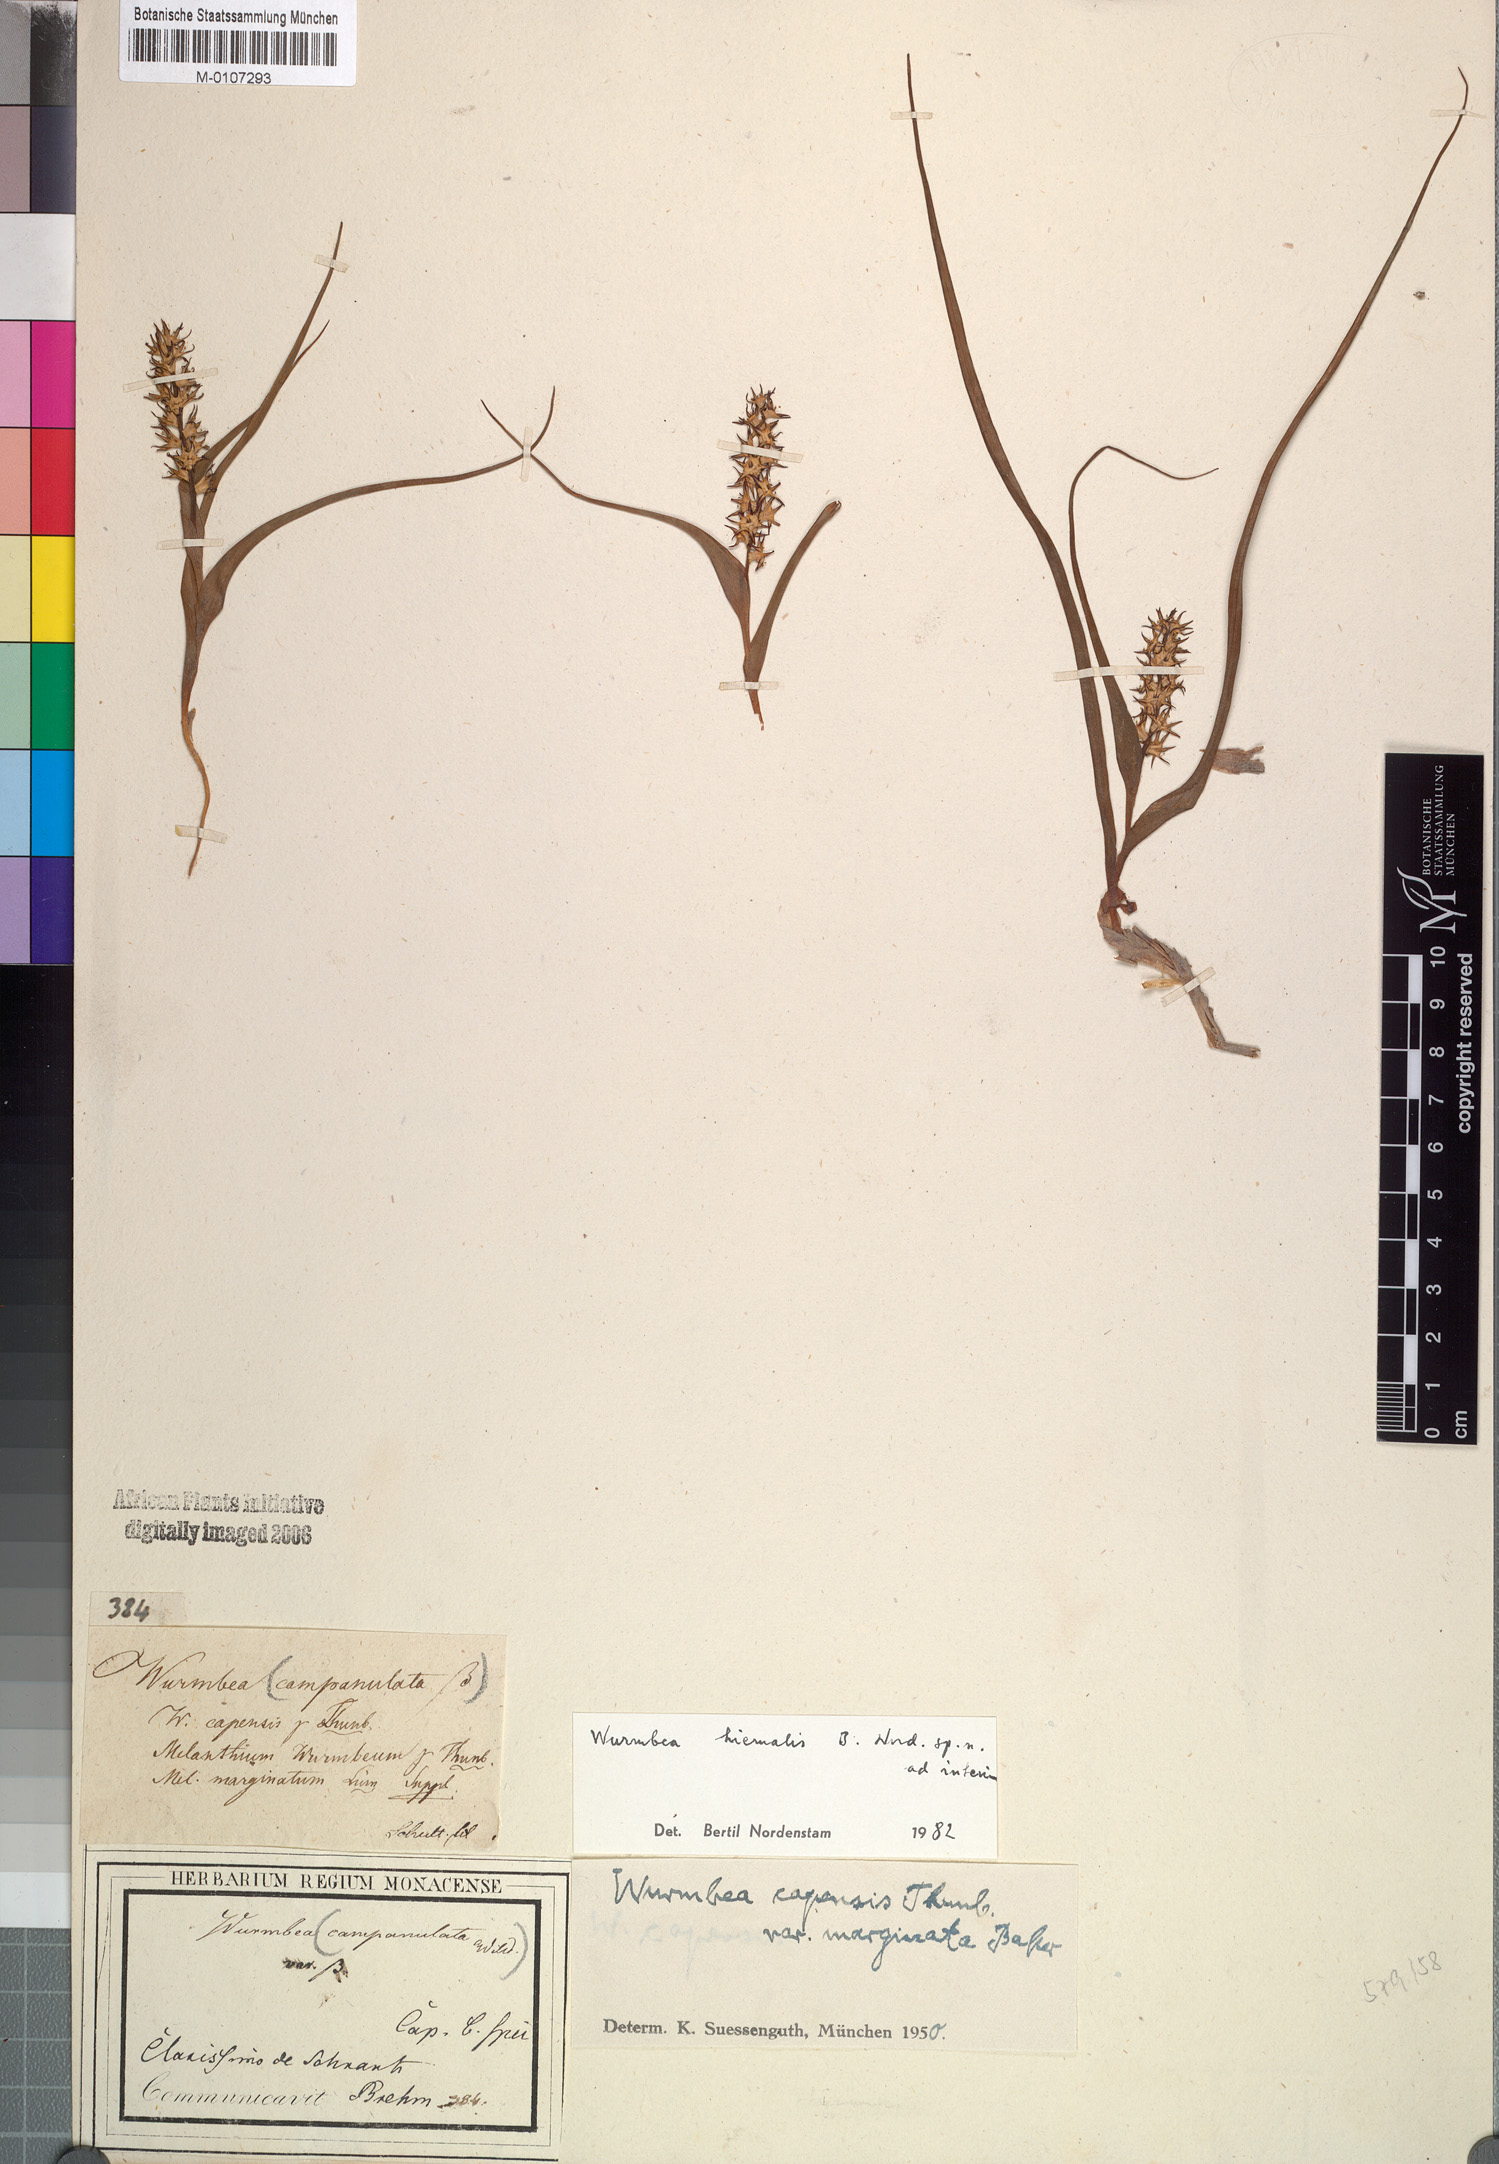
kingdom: Plantae
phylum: Tracheophyta
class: Liliopsida
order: Liliales
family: Colchicaceae
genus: Wurmbea
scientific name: Wurmbea hiemalis
